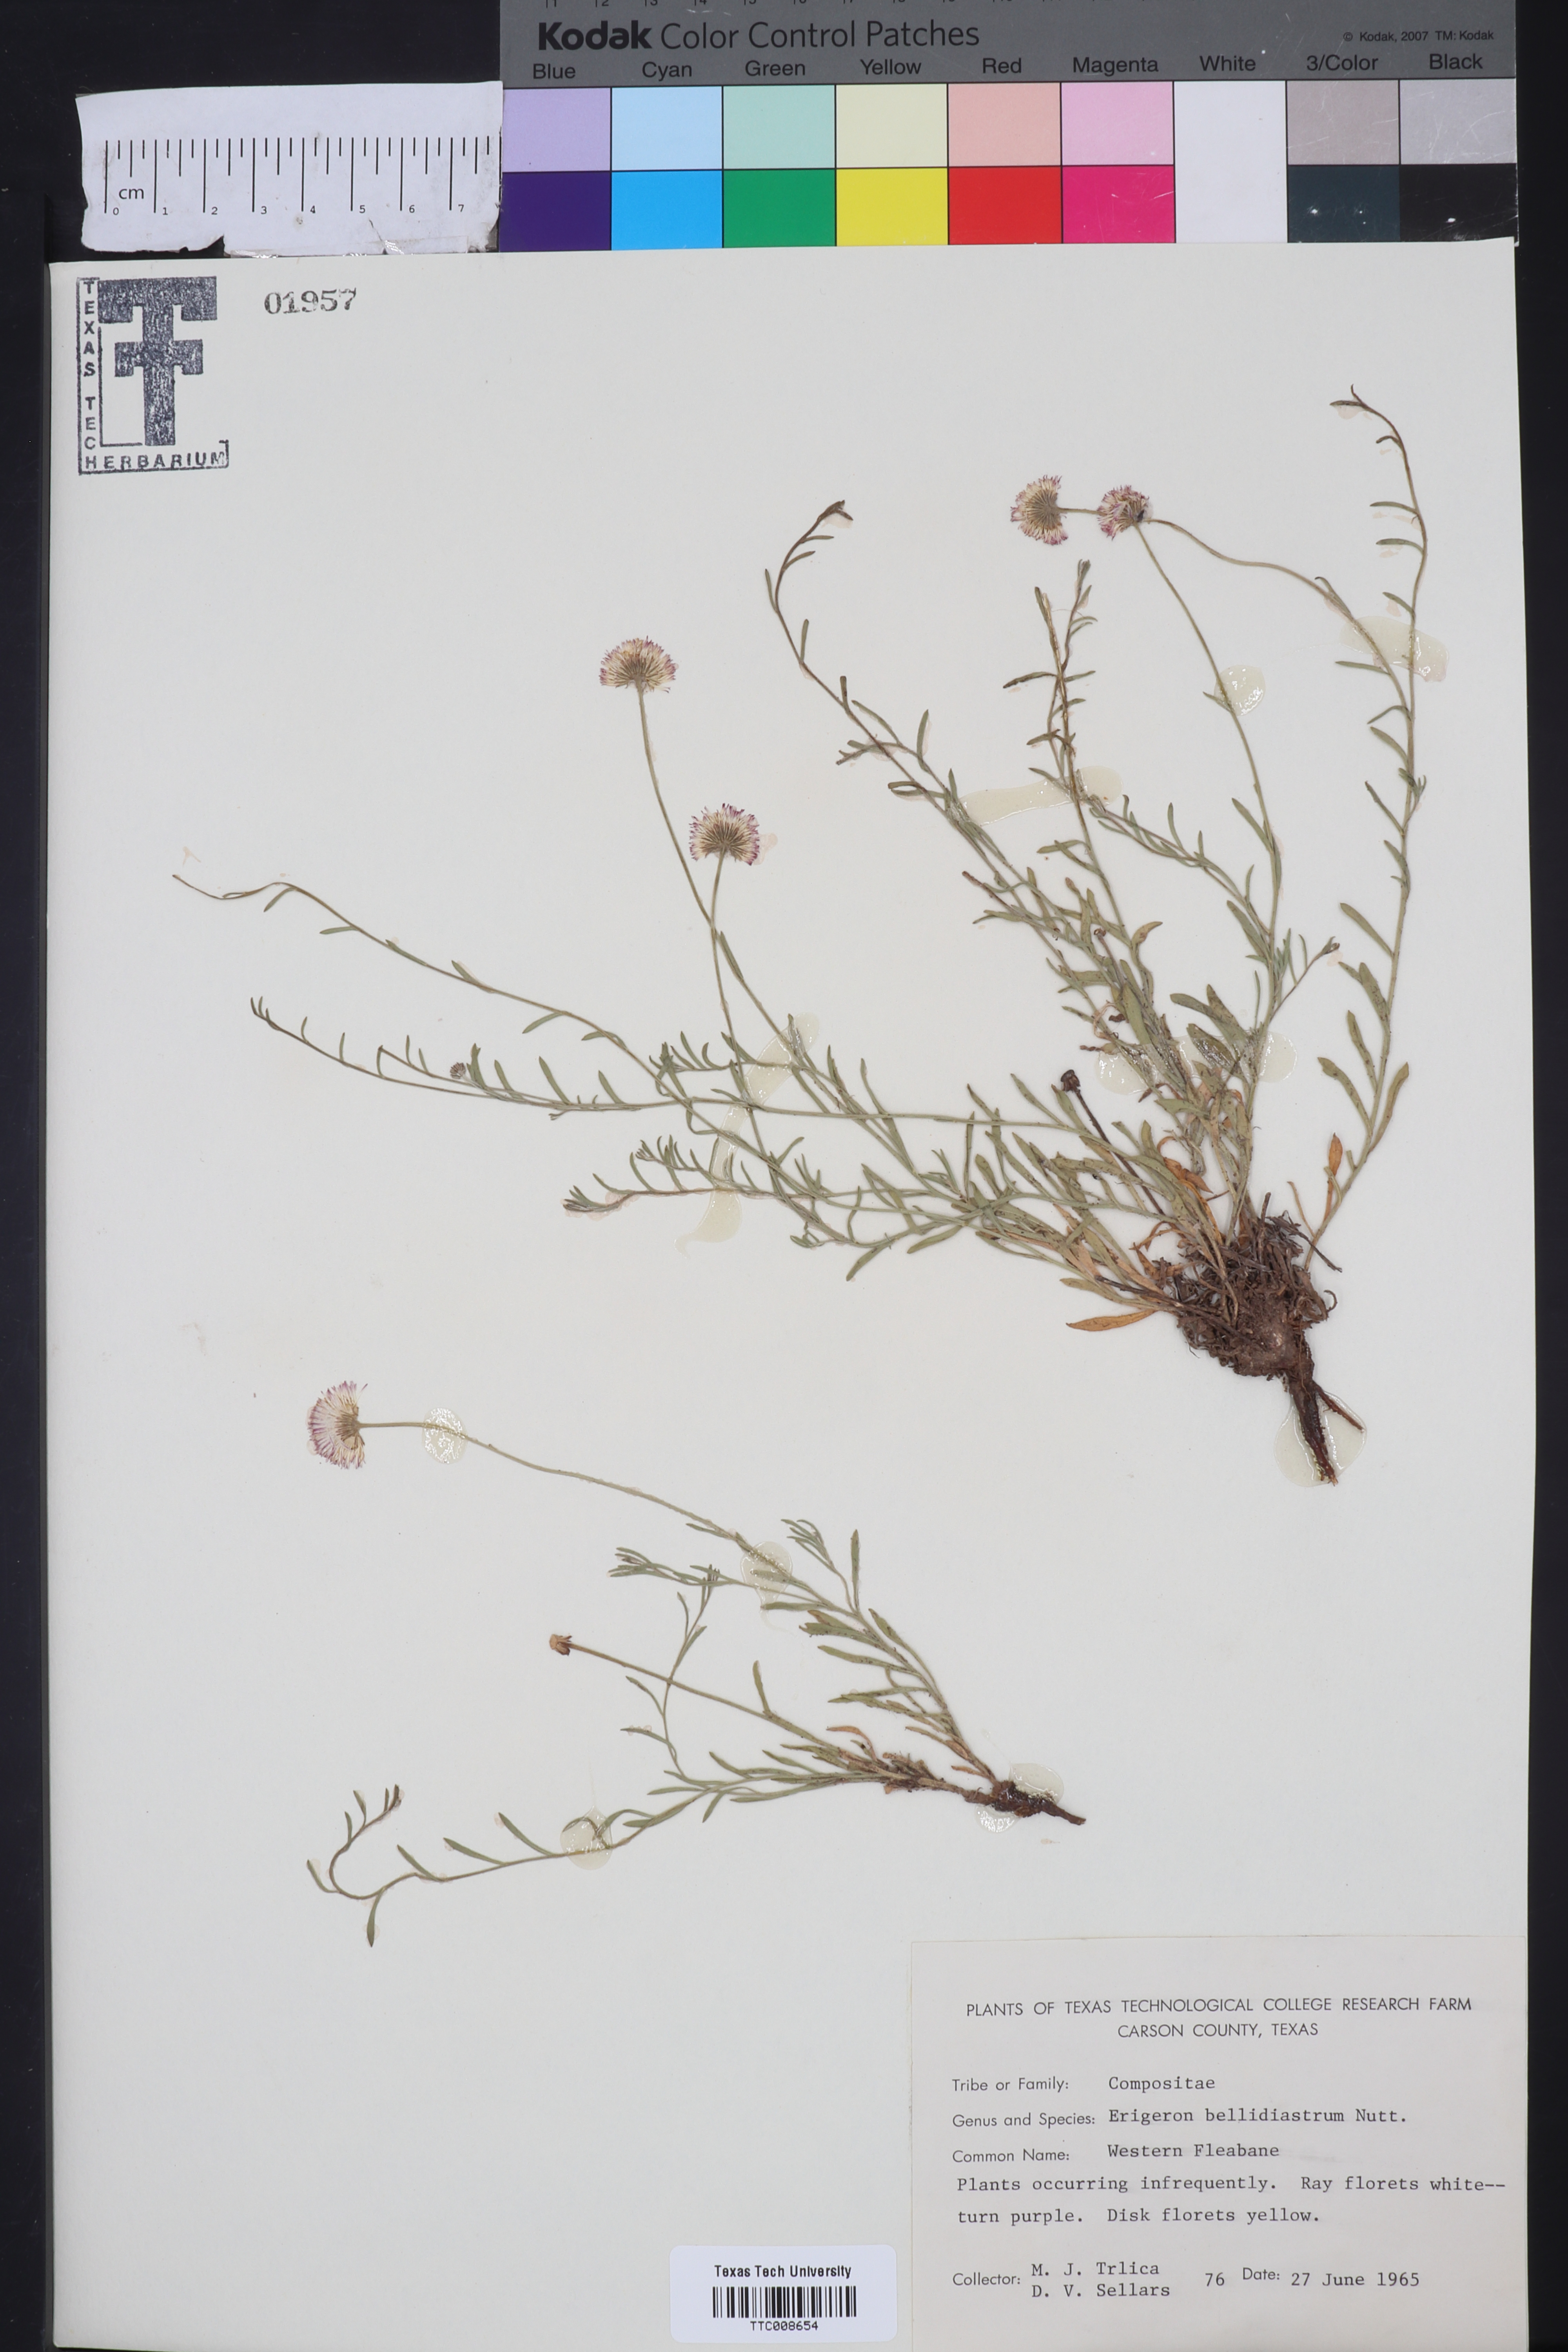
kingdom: Plantae
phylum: Tracheophyta
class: Magnoliopsida
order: Asterales
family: Asteraceae
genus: Erigeron
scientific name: Erigeron bellidiastrum
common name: Sand fleabane
